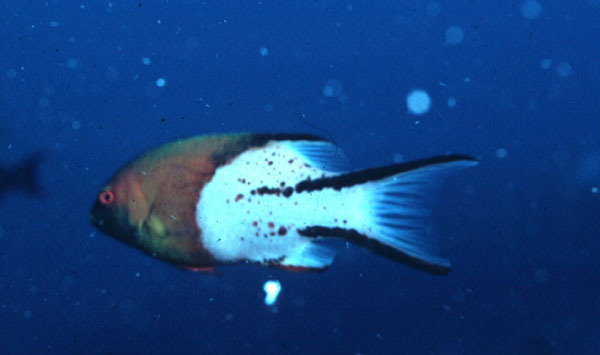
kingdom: Animalia
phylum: Chordata
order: Perciformes
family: Labridae
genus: Bodianus
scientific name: Bodianus anthioides
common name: Lyretail hogfish
